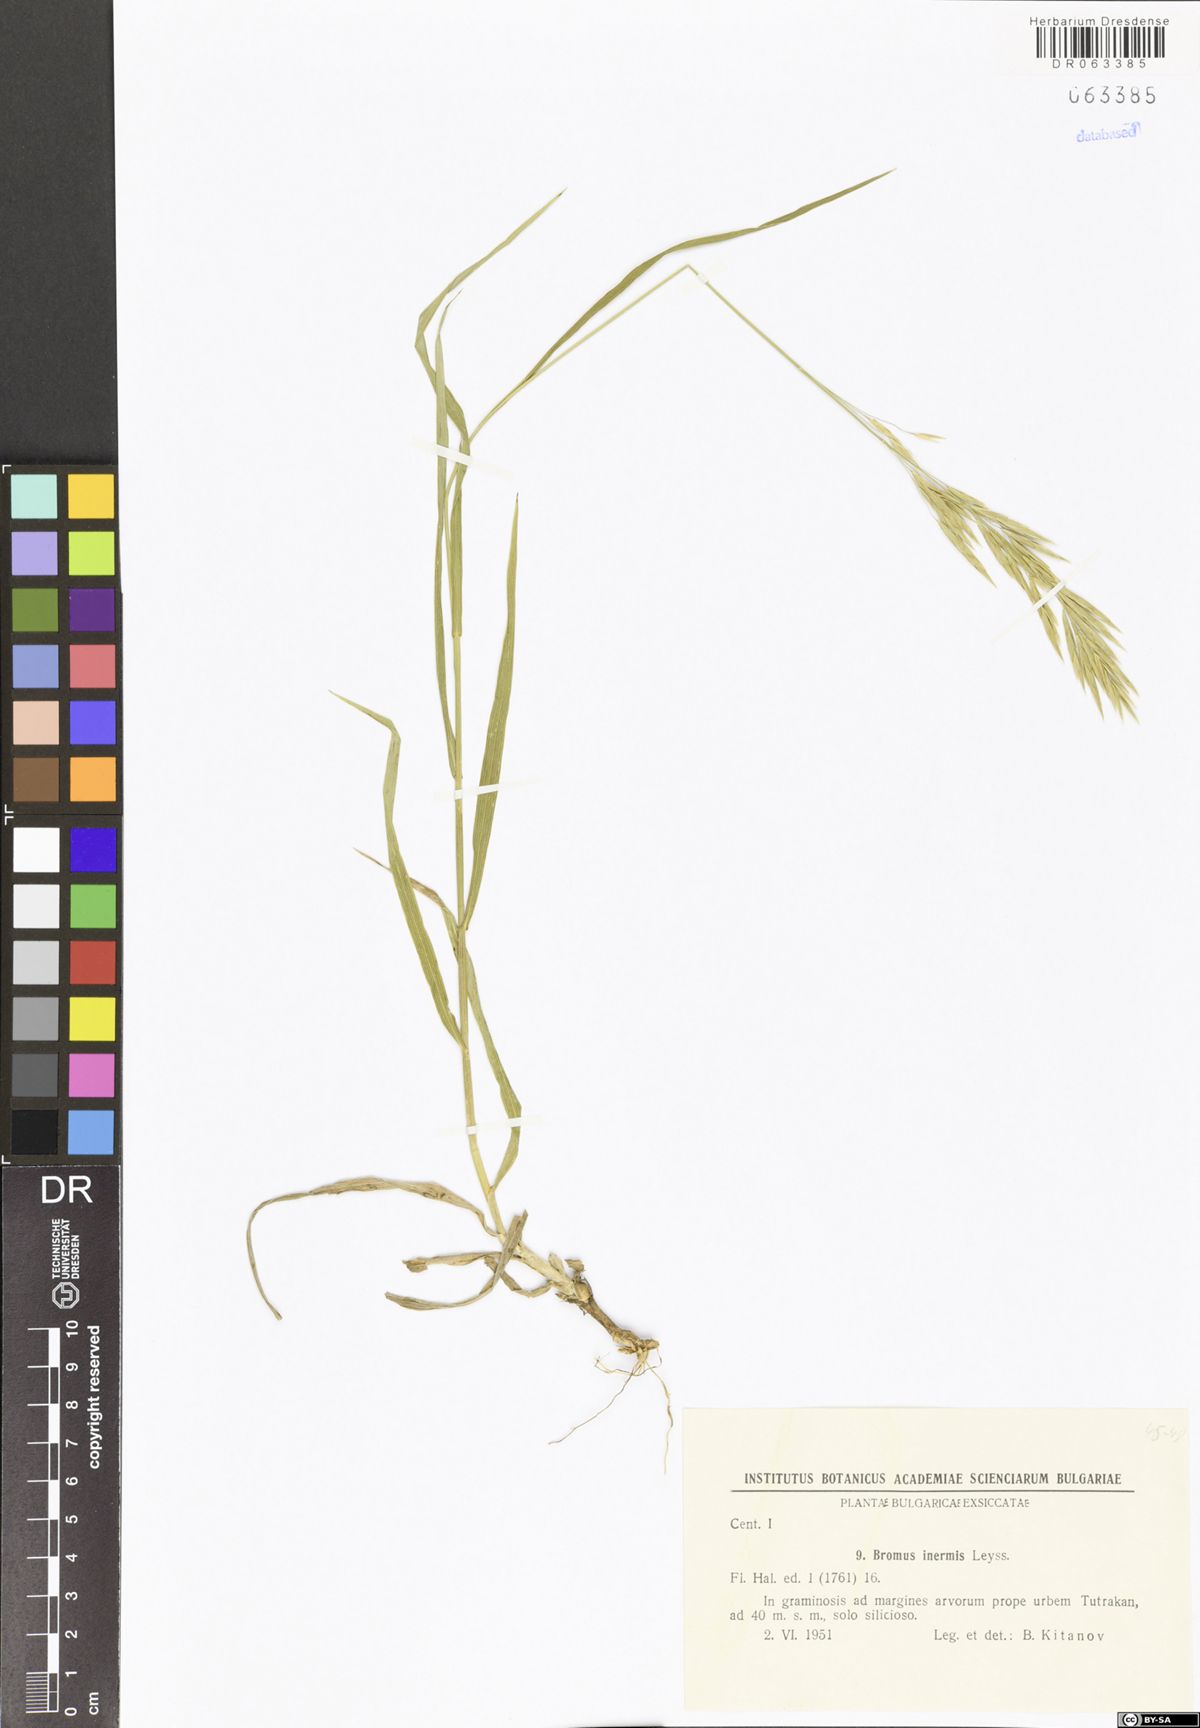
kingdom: Plantae
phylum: Tracheophyta
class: Liliopsida
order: Poales
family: Poaceae
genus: Bromus
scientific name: Bromus inermis
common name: Smooth brome
